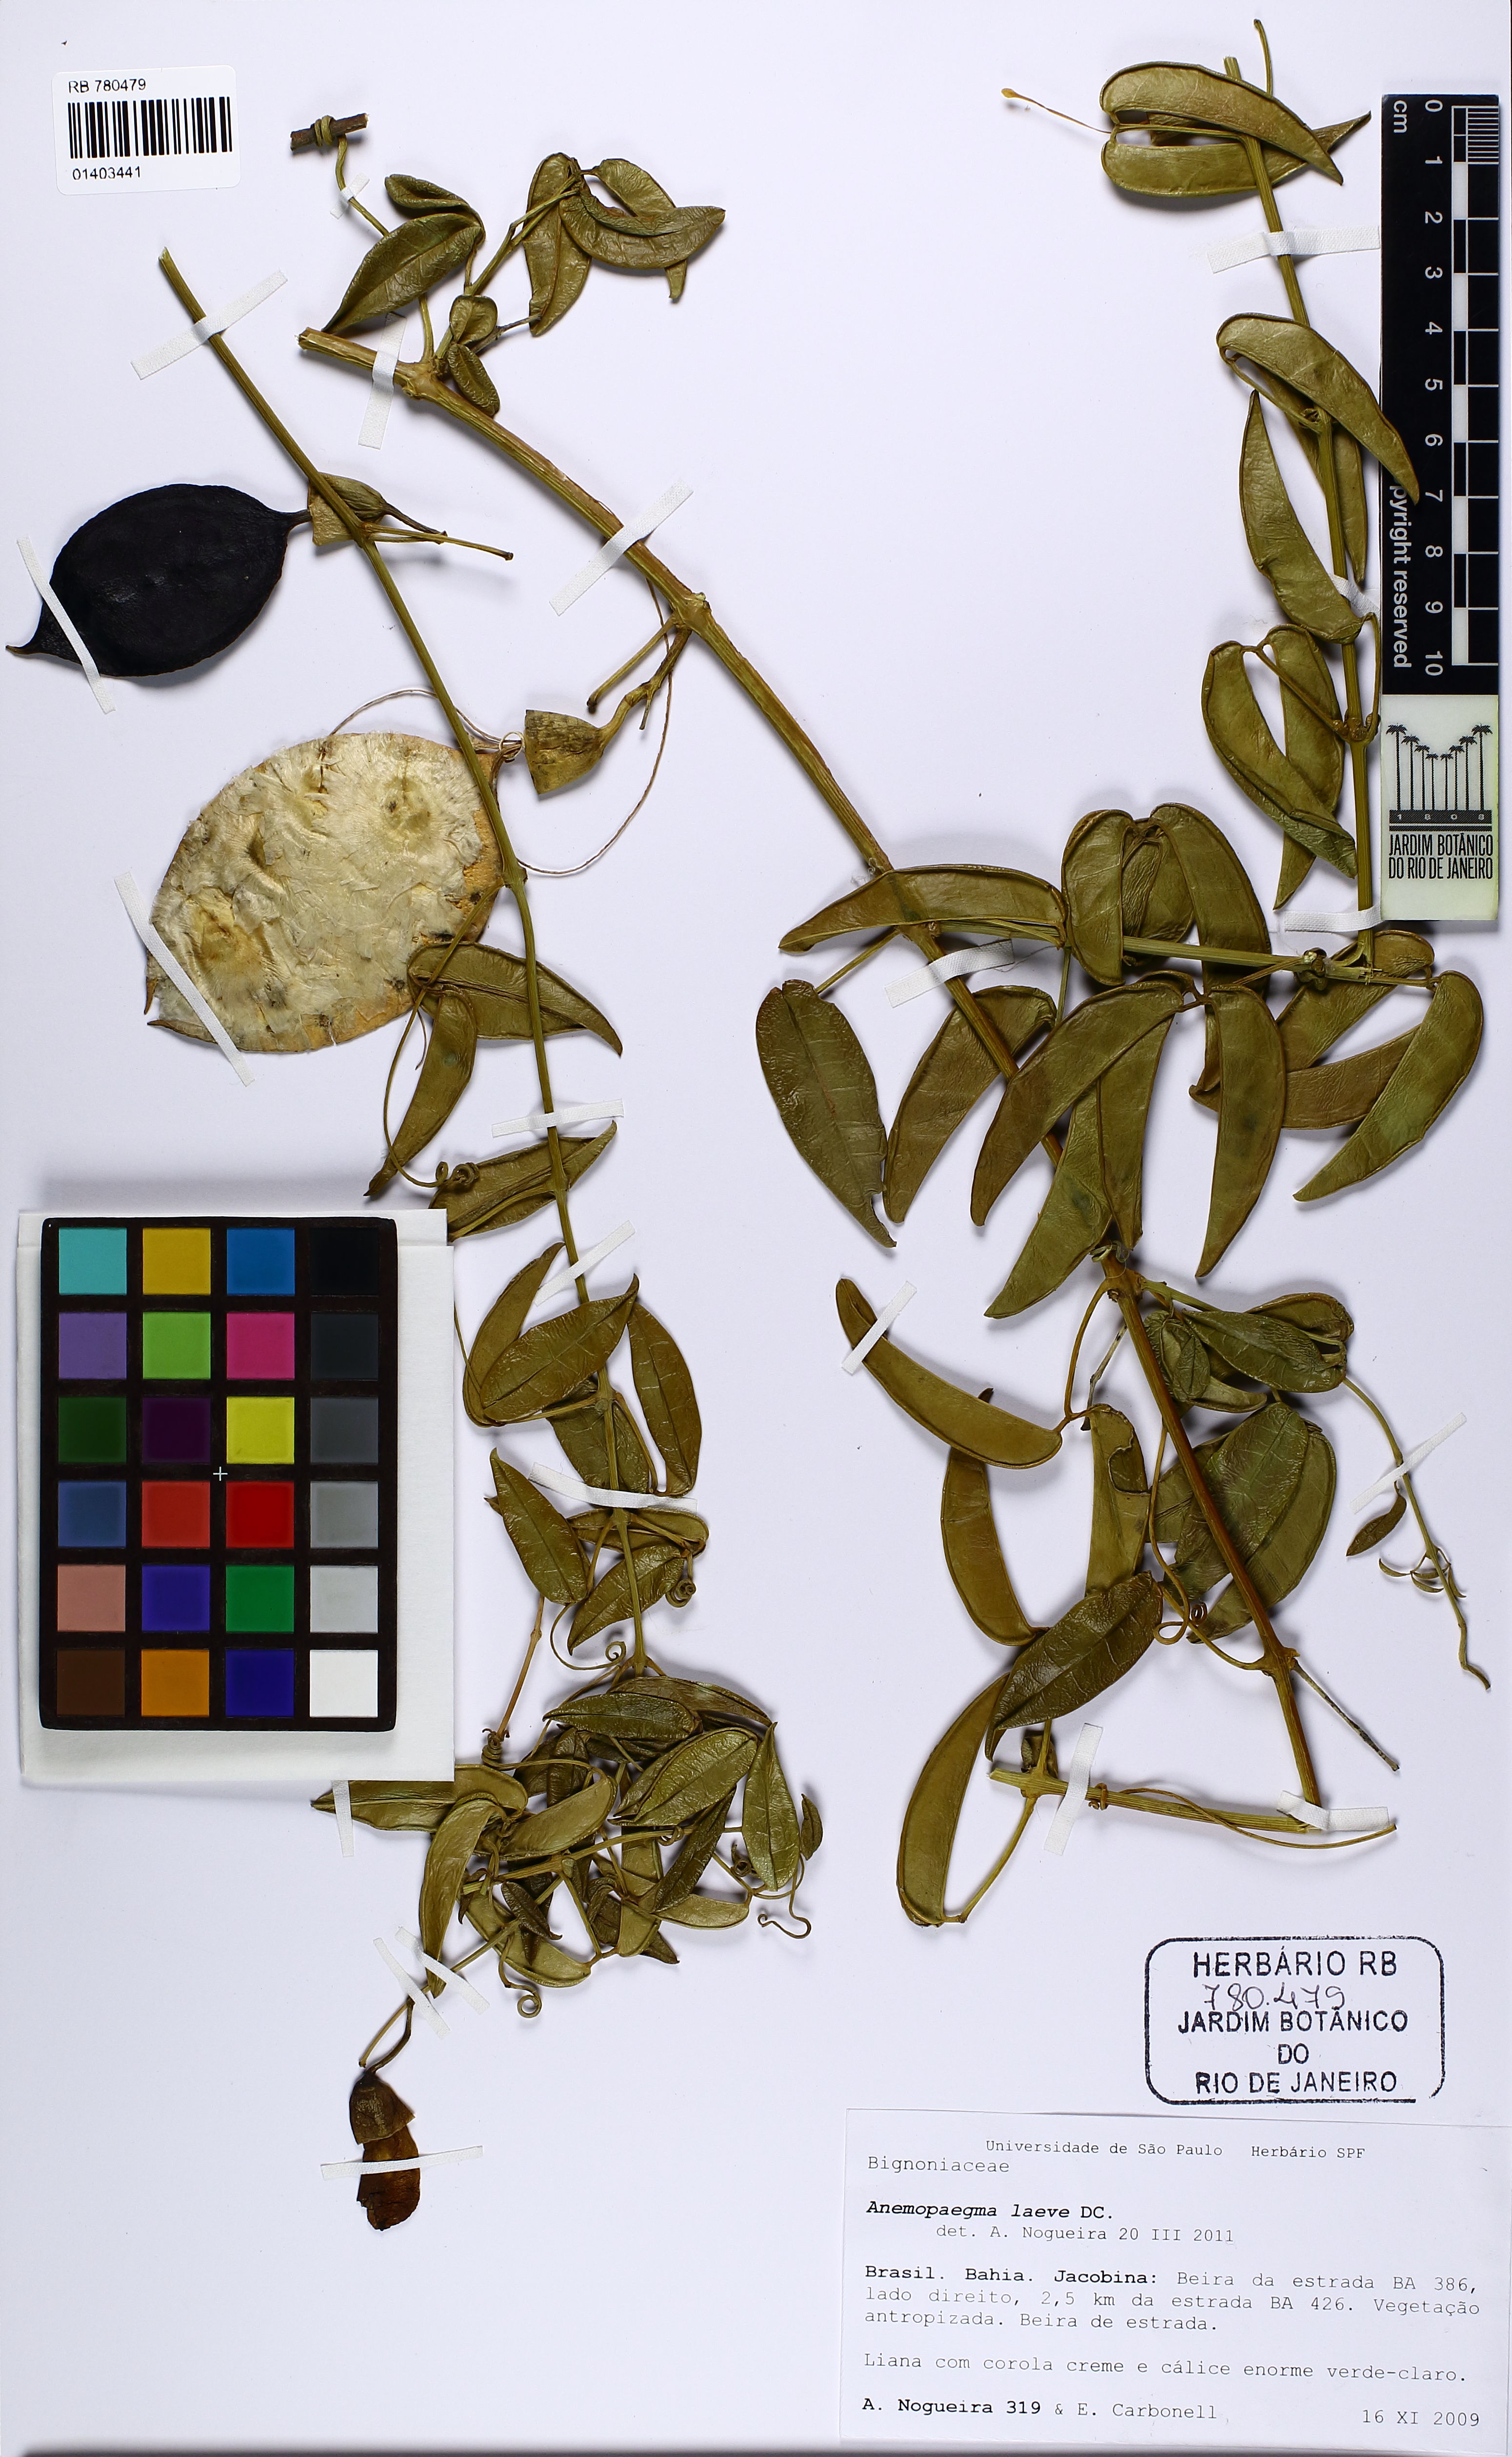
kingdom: Plantae
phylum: Tracheophyta
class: Magnoliopsida
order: Lamiales
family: Bignoniaceae
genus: Anemopaegma
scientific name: Anemopaegma laeve
